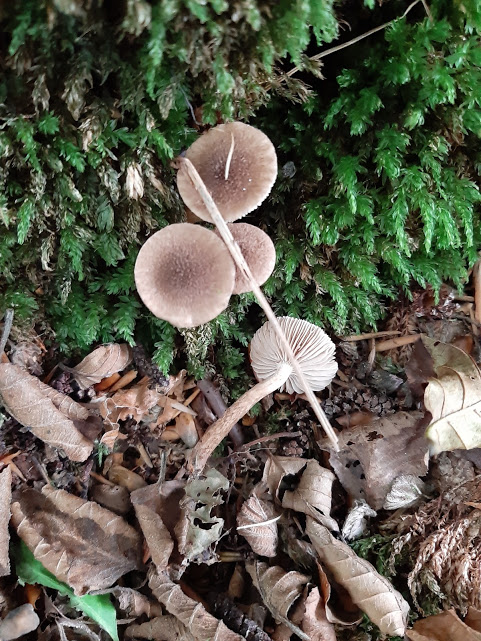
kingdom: Fungi
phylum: Basidiomycota
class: Agaricomycetes
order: Agaricales
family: Inocybaceae
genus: Inocybe
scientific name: Inocybe
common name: trævlhat
